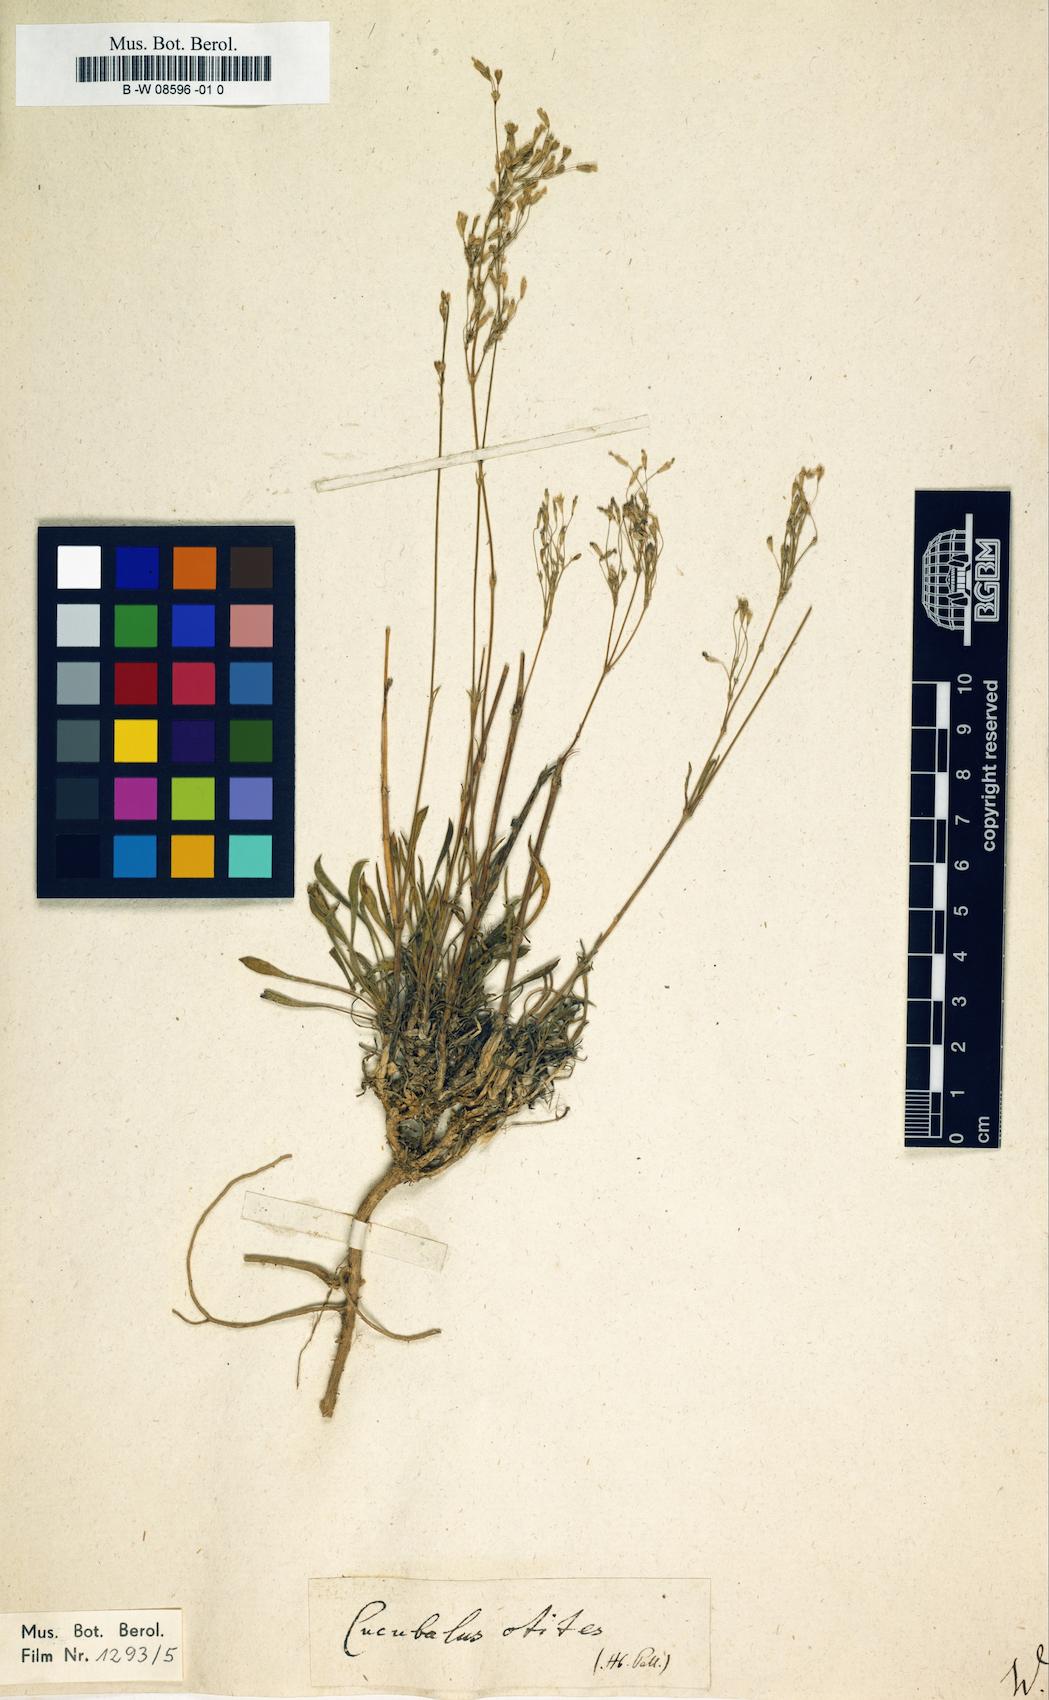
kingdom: Animalia
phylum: Cnidaria
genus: Cucubalus
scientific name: Cucubalus
